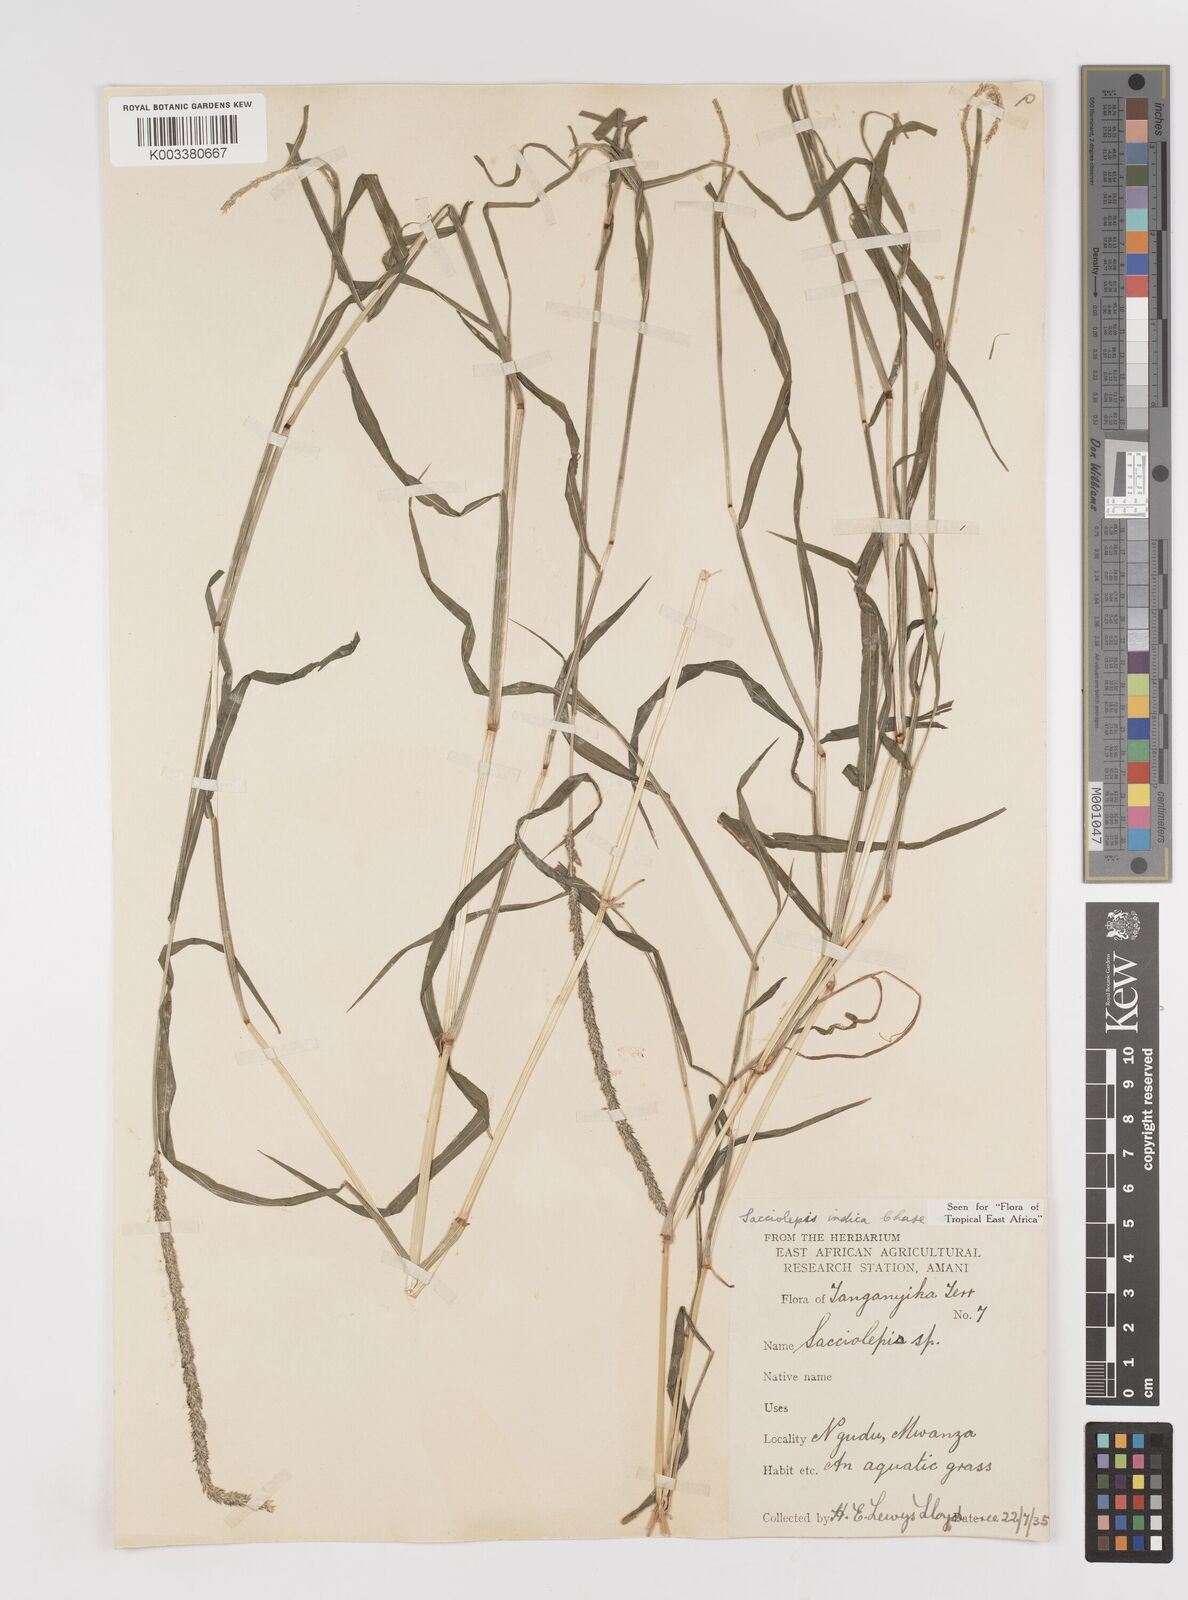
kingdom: Plantae
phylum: Tracheophyta
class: Liliopsida
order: Poales
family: Poaceae
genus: Sacciolepis
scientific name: Sacciolepis indica
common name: Glenwoodgrass
